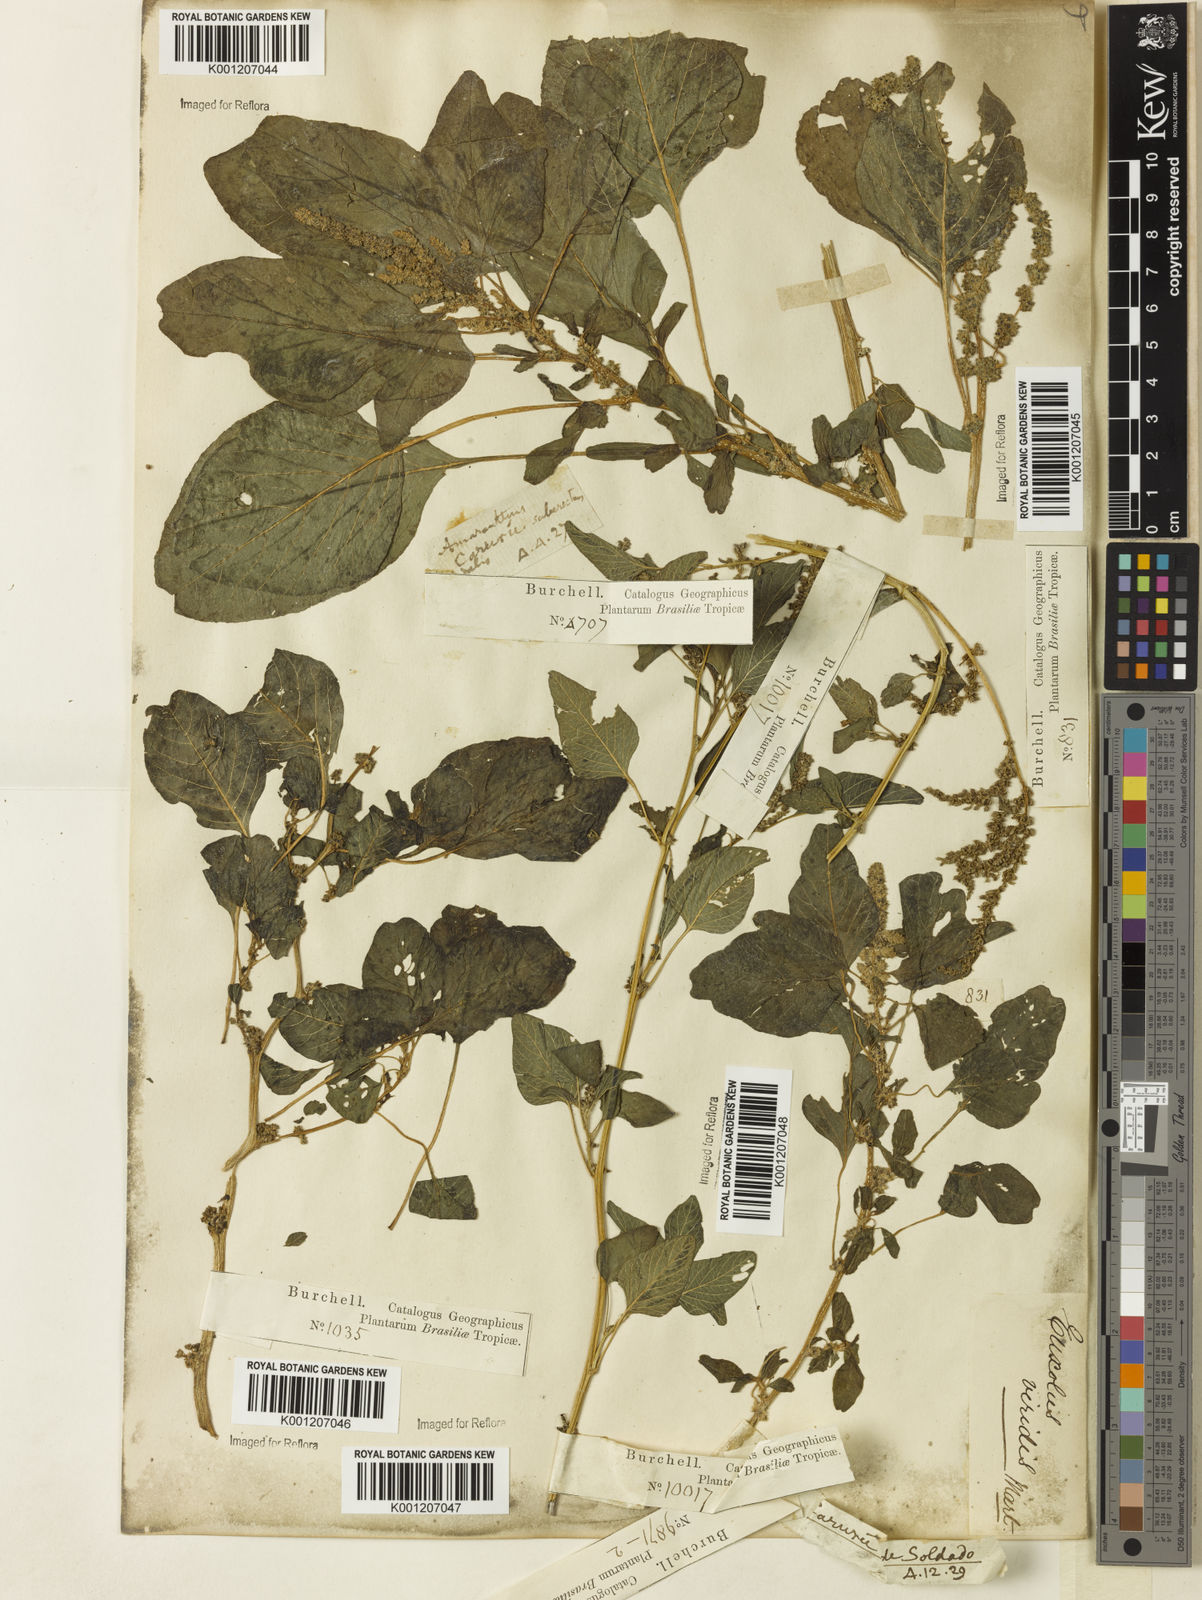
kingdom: Plantae
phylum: Tracheophyta
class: Magnoliopsida
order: Caryophyllales
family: Amaranthaceae
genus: Amaranthus
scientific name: Amaranthus
